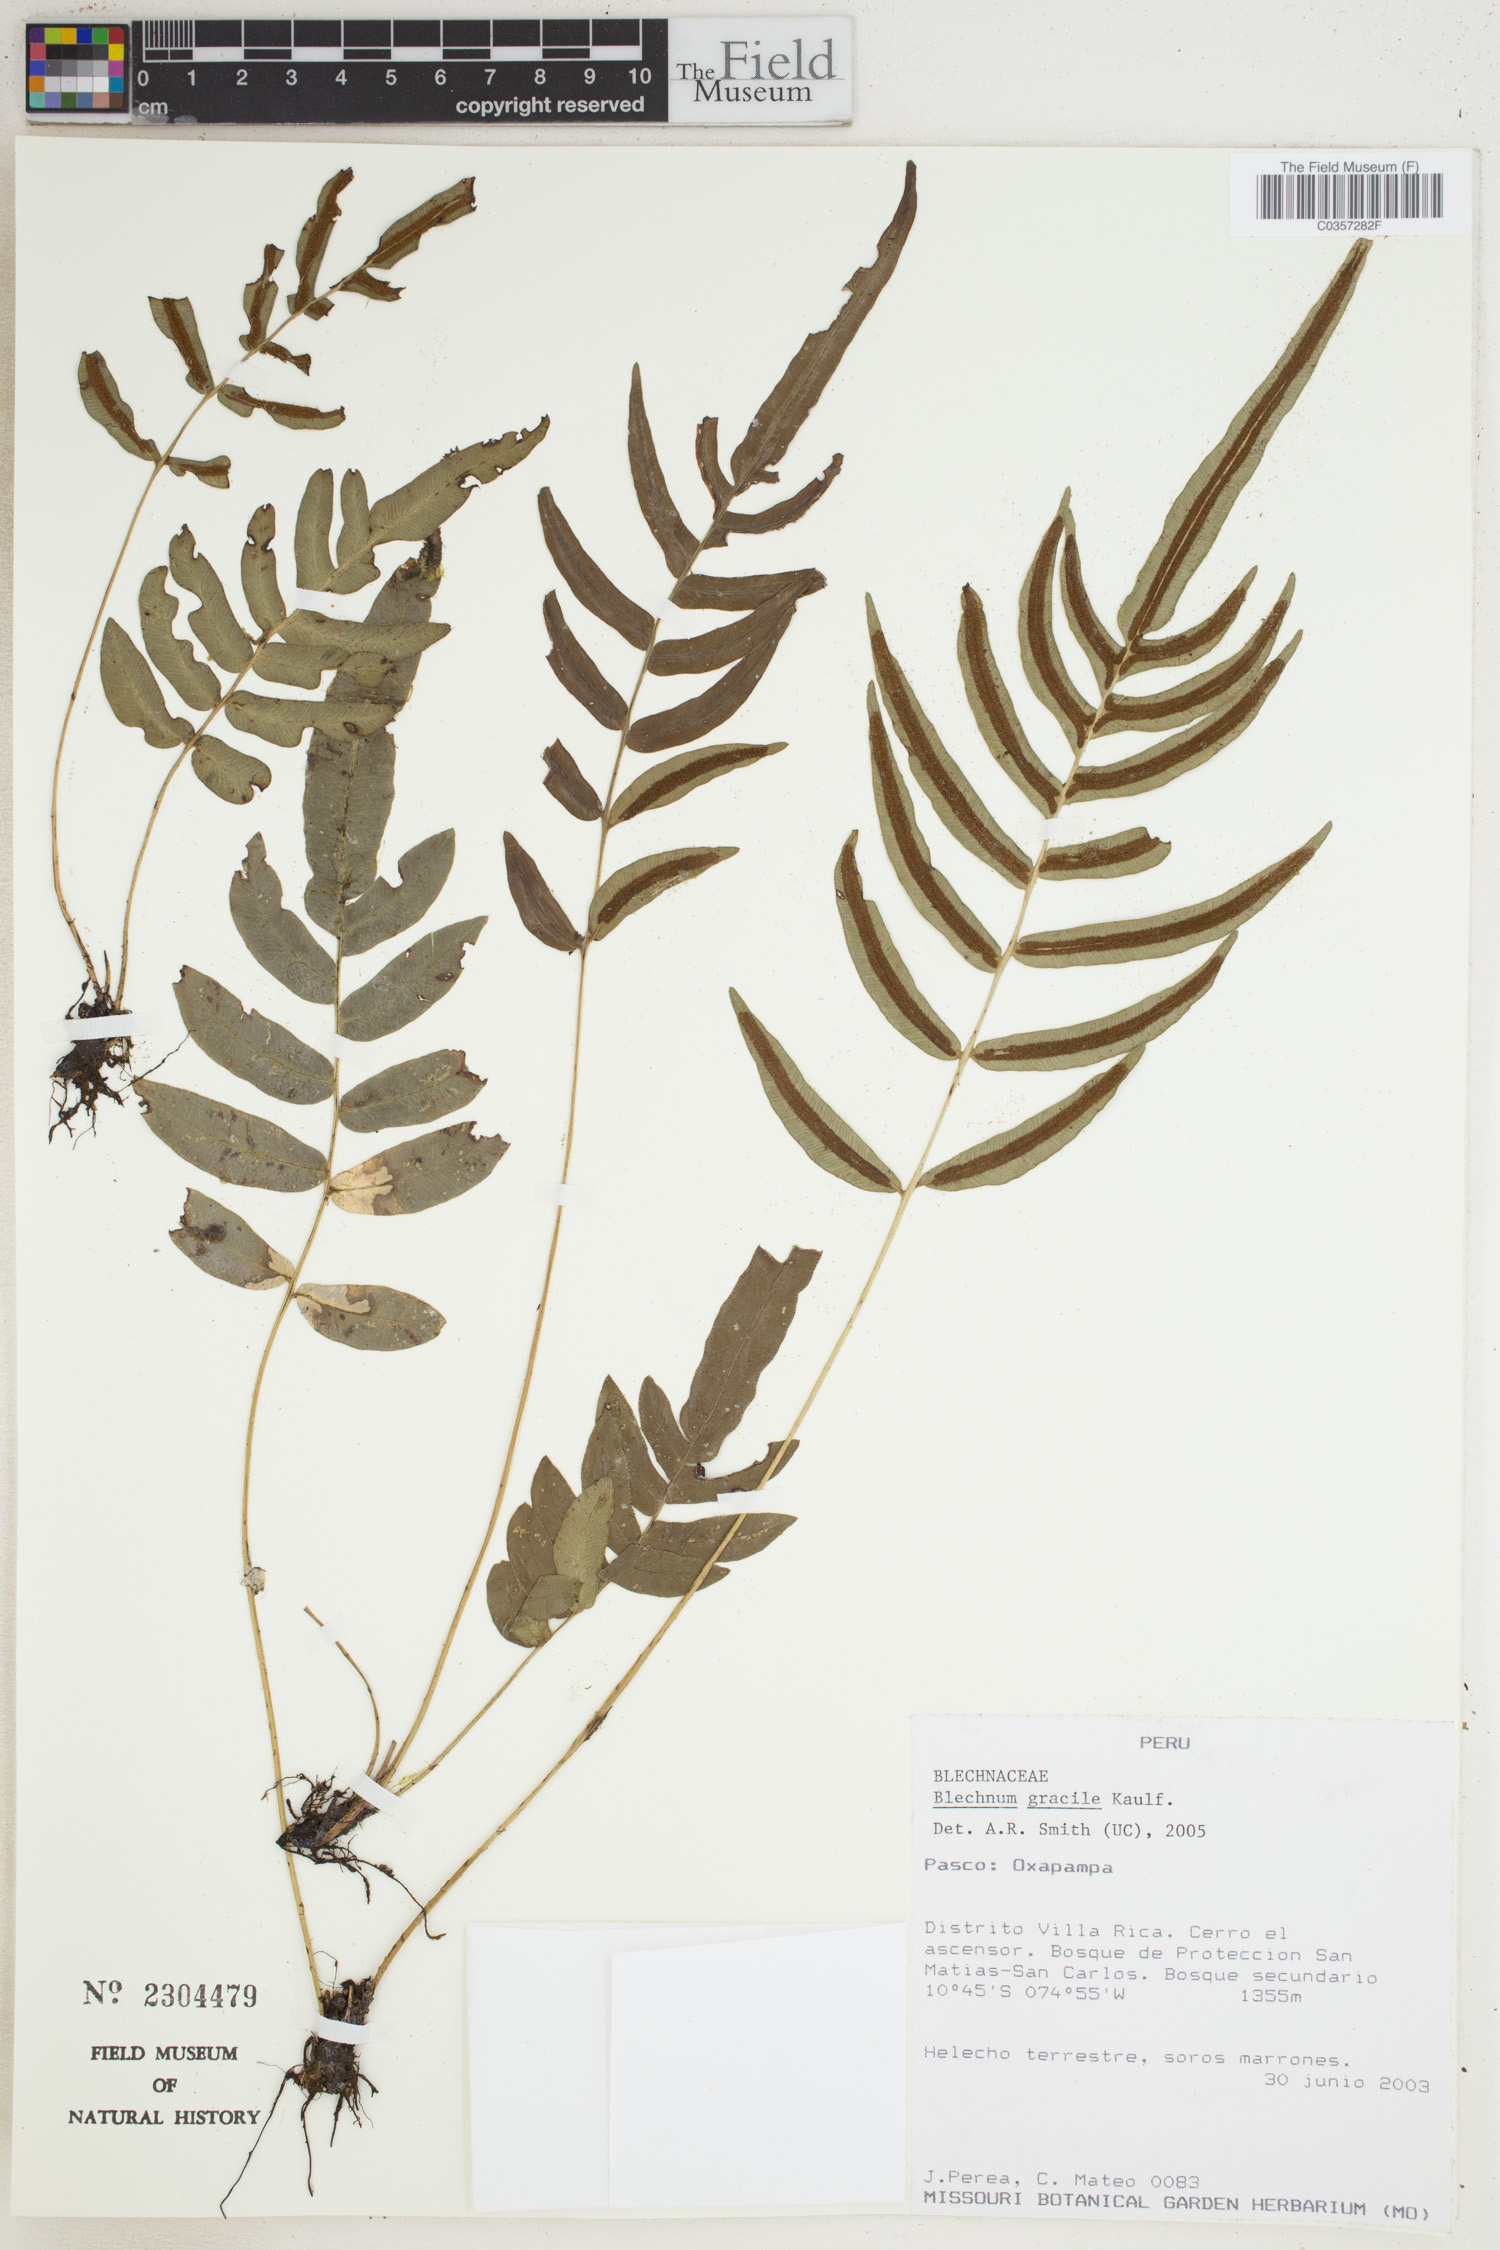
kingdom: Plantae
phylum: Tracheophyta
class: Polypodiopsida
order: Polypodiales
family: Blechnaceae
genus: Blechnum
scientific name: Blechnum gracile
